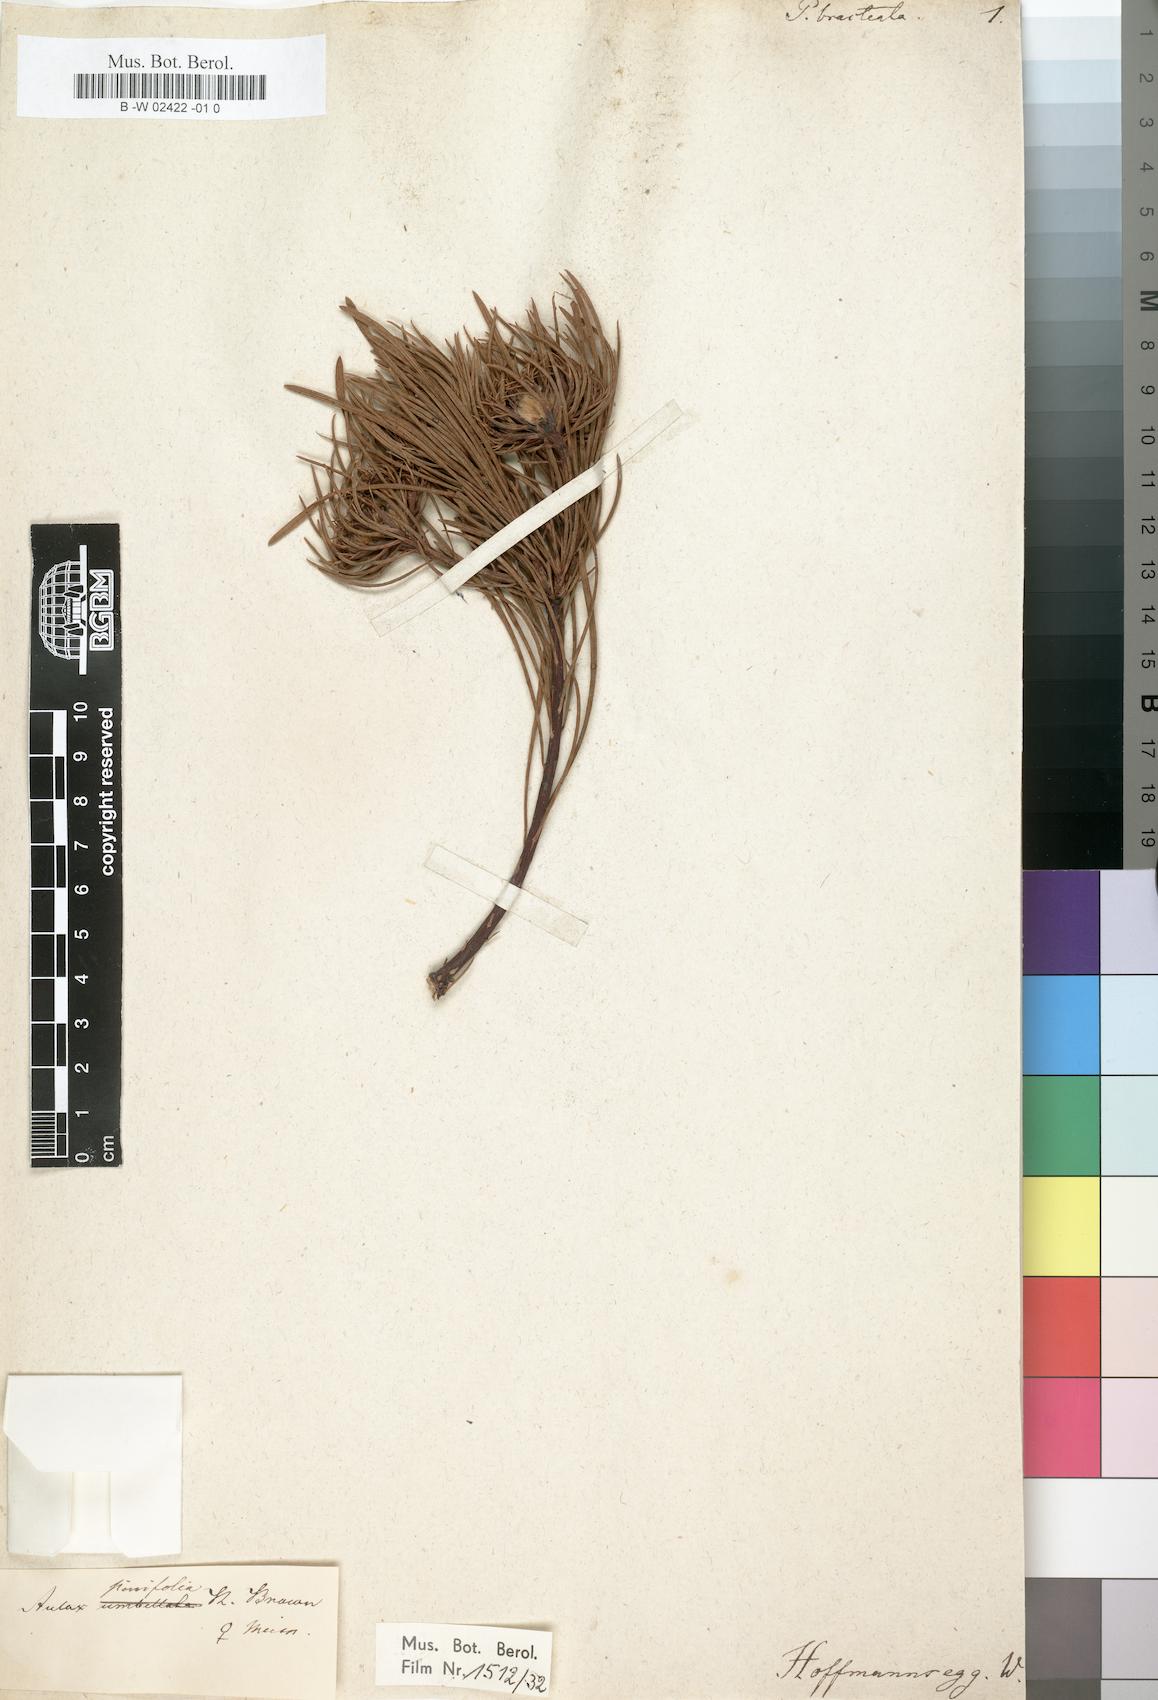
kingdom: Plantae
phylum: Tracheophyta
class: Magnoliopsida
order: Proteales
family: Proteaceae
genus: Aulax
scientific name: Aulax cancellata
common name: Channel-leaf featherbush
